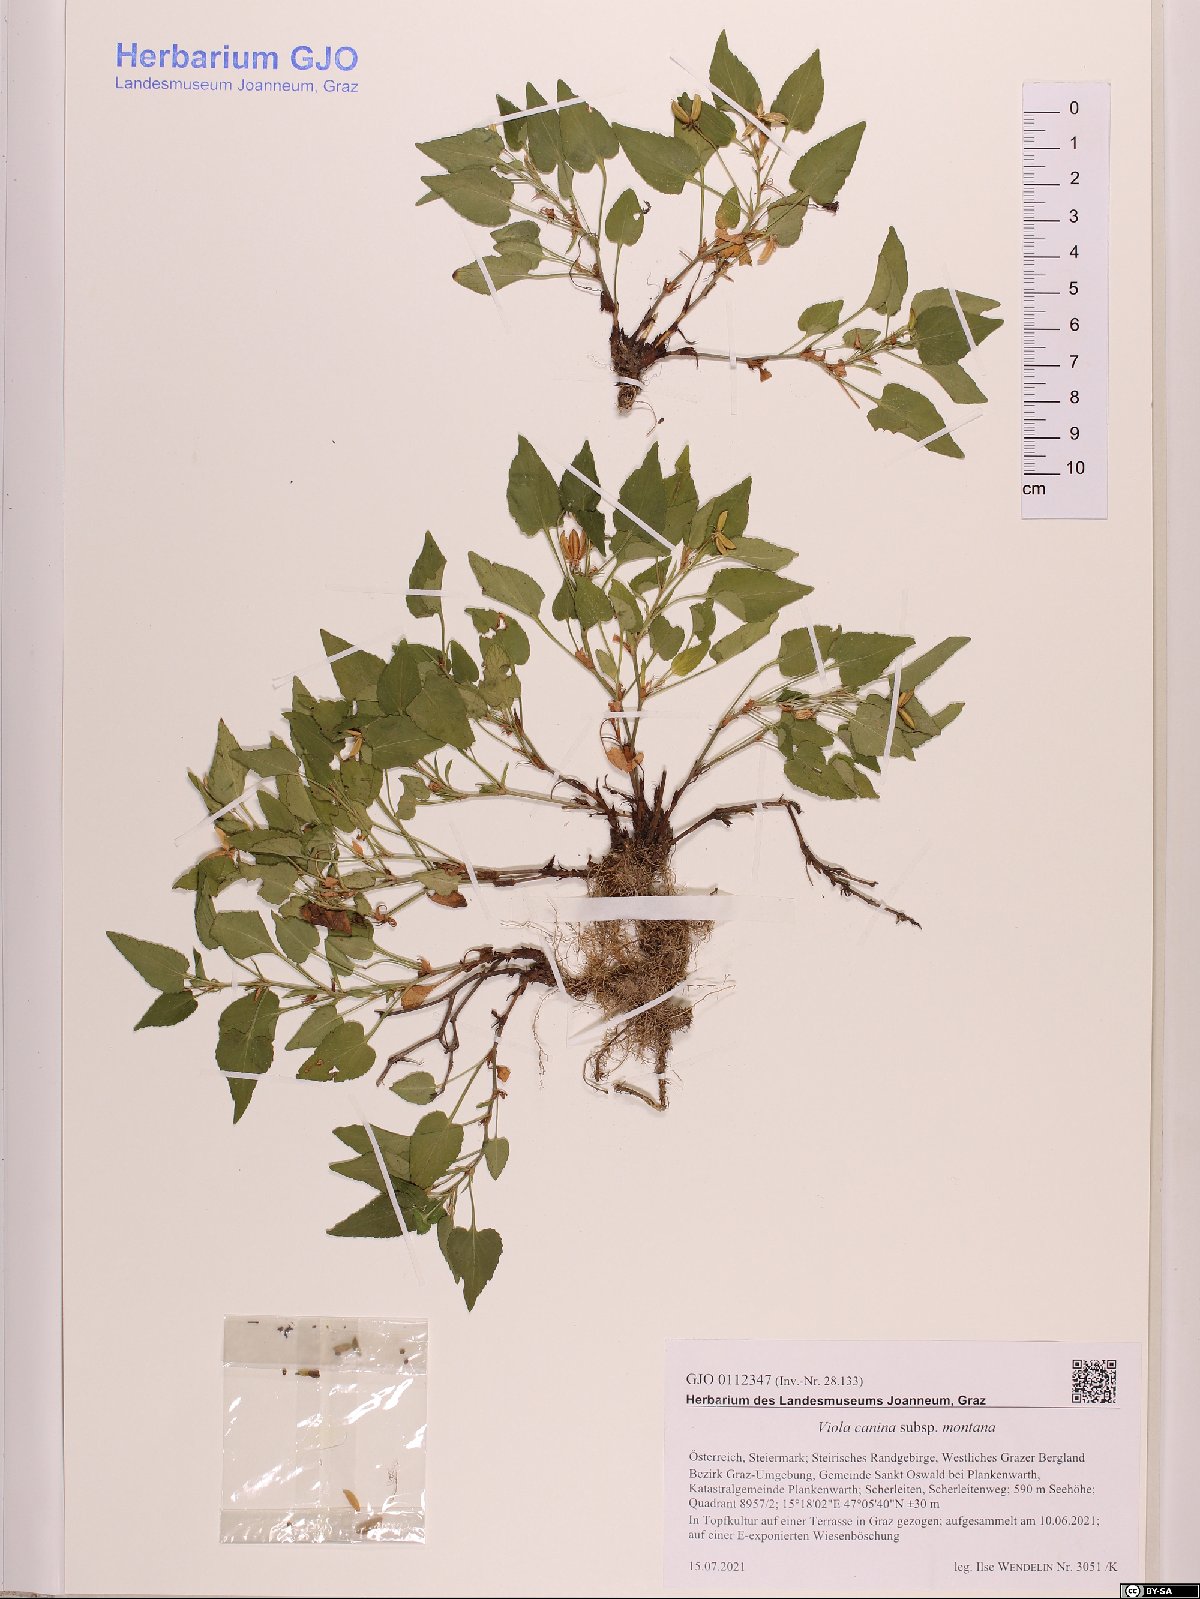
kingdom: Plantae
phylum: Tracheophyta
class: Magnoliopsida
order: Malpighiales
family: Violaceae
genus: Viola
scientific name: Viola ruppii
